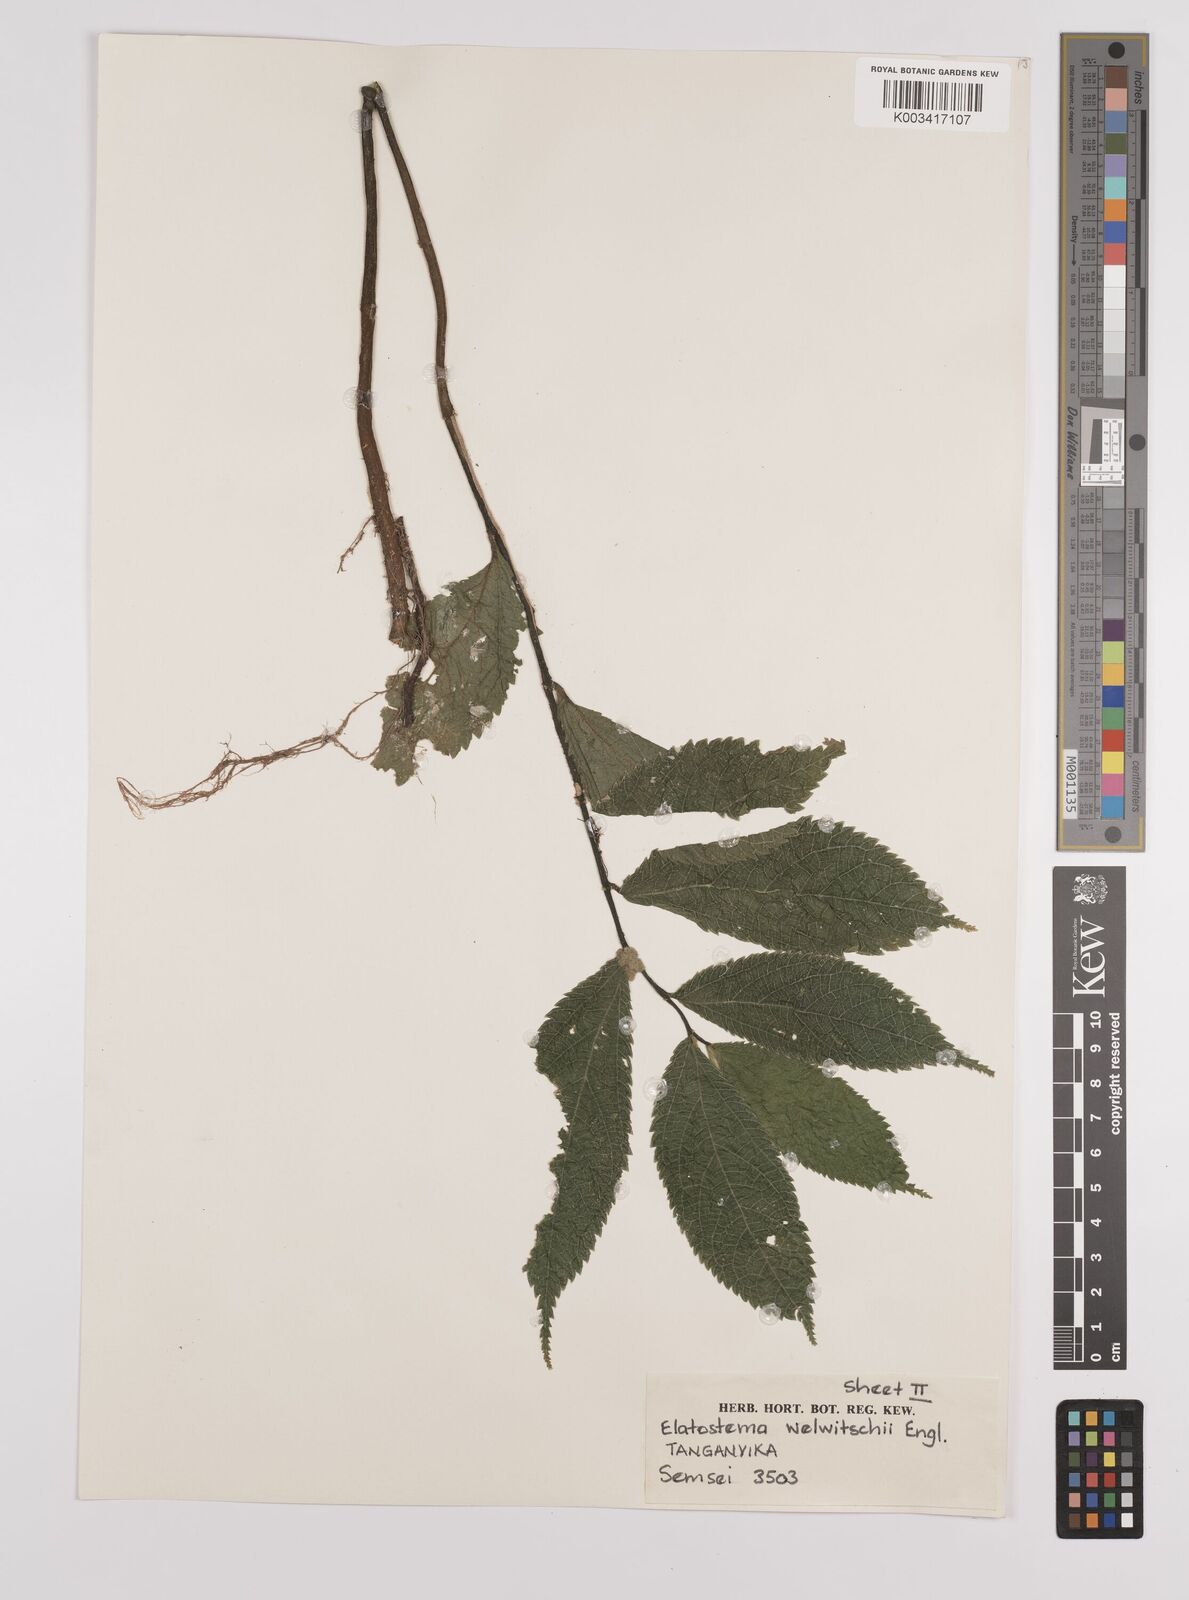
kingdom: Plantae
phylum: Tracheophyta
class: Magnoliopsida
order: Rosales
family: Urticaceae
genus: Elatostema
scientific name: Elatostema welwitschii
